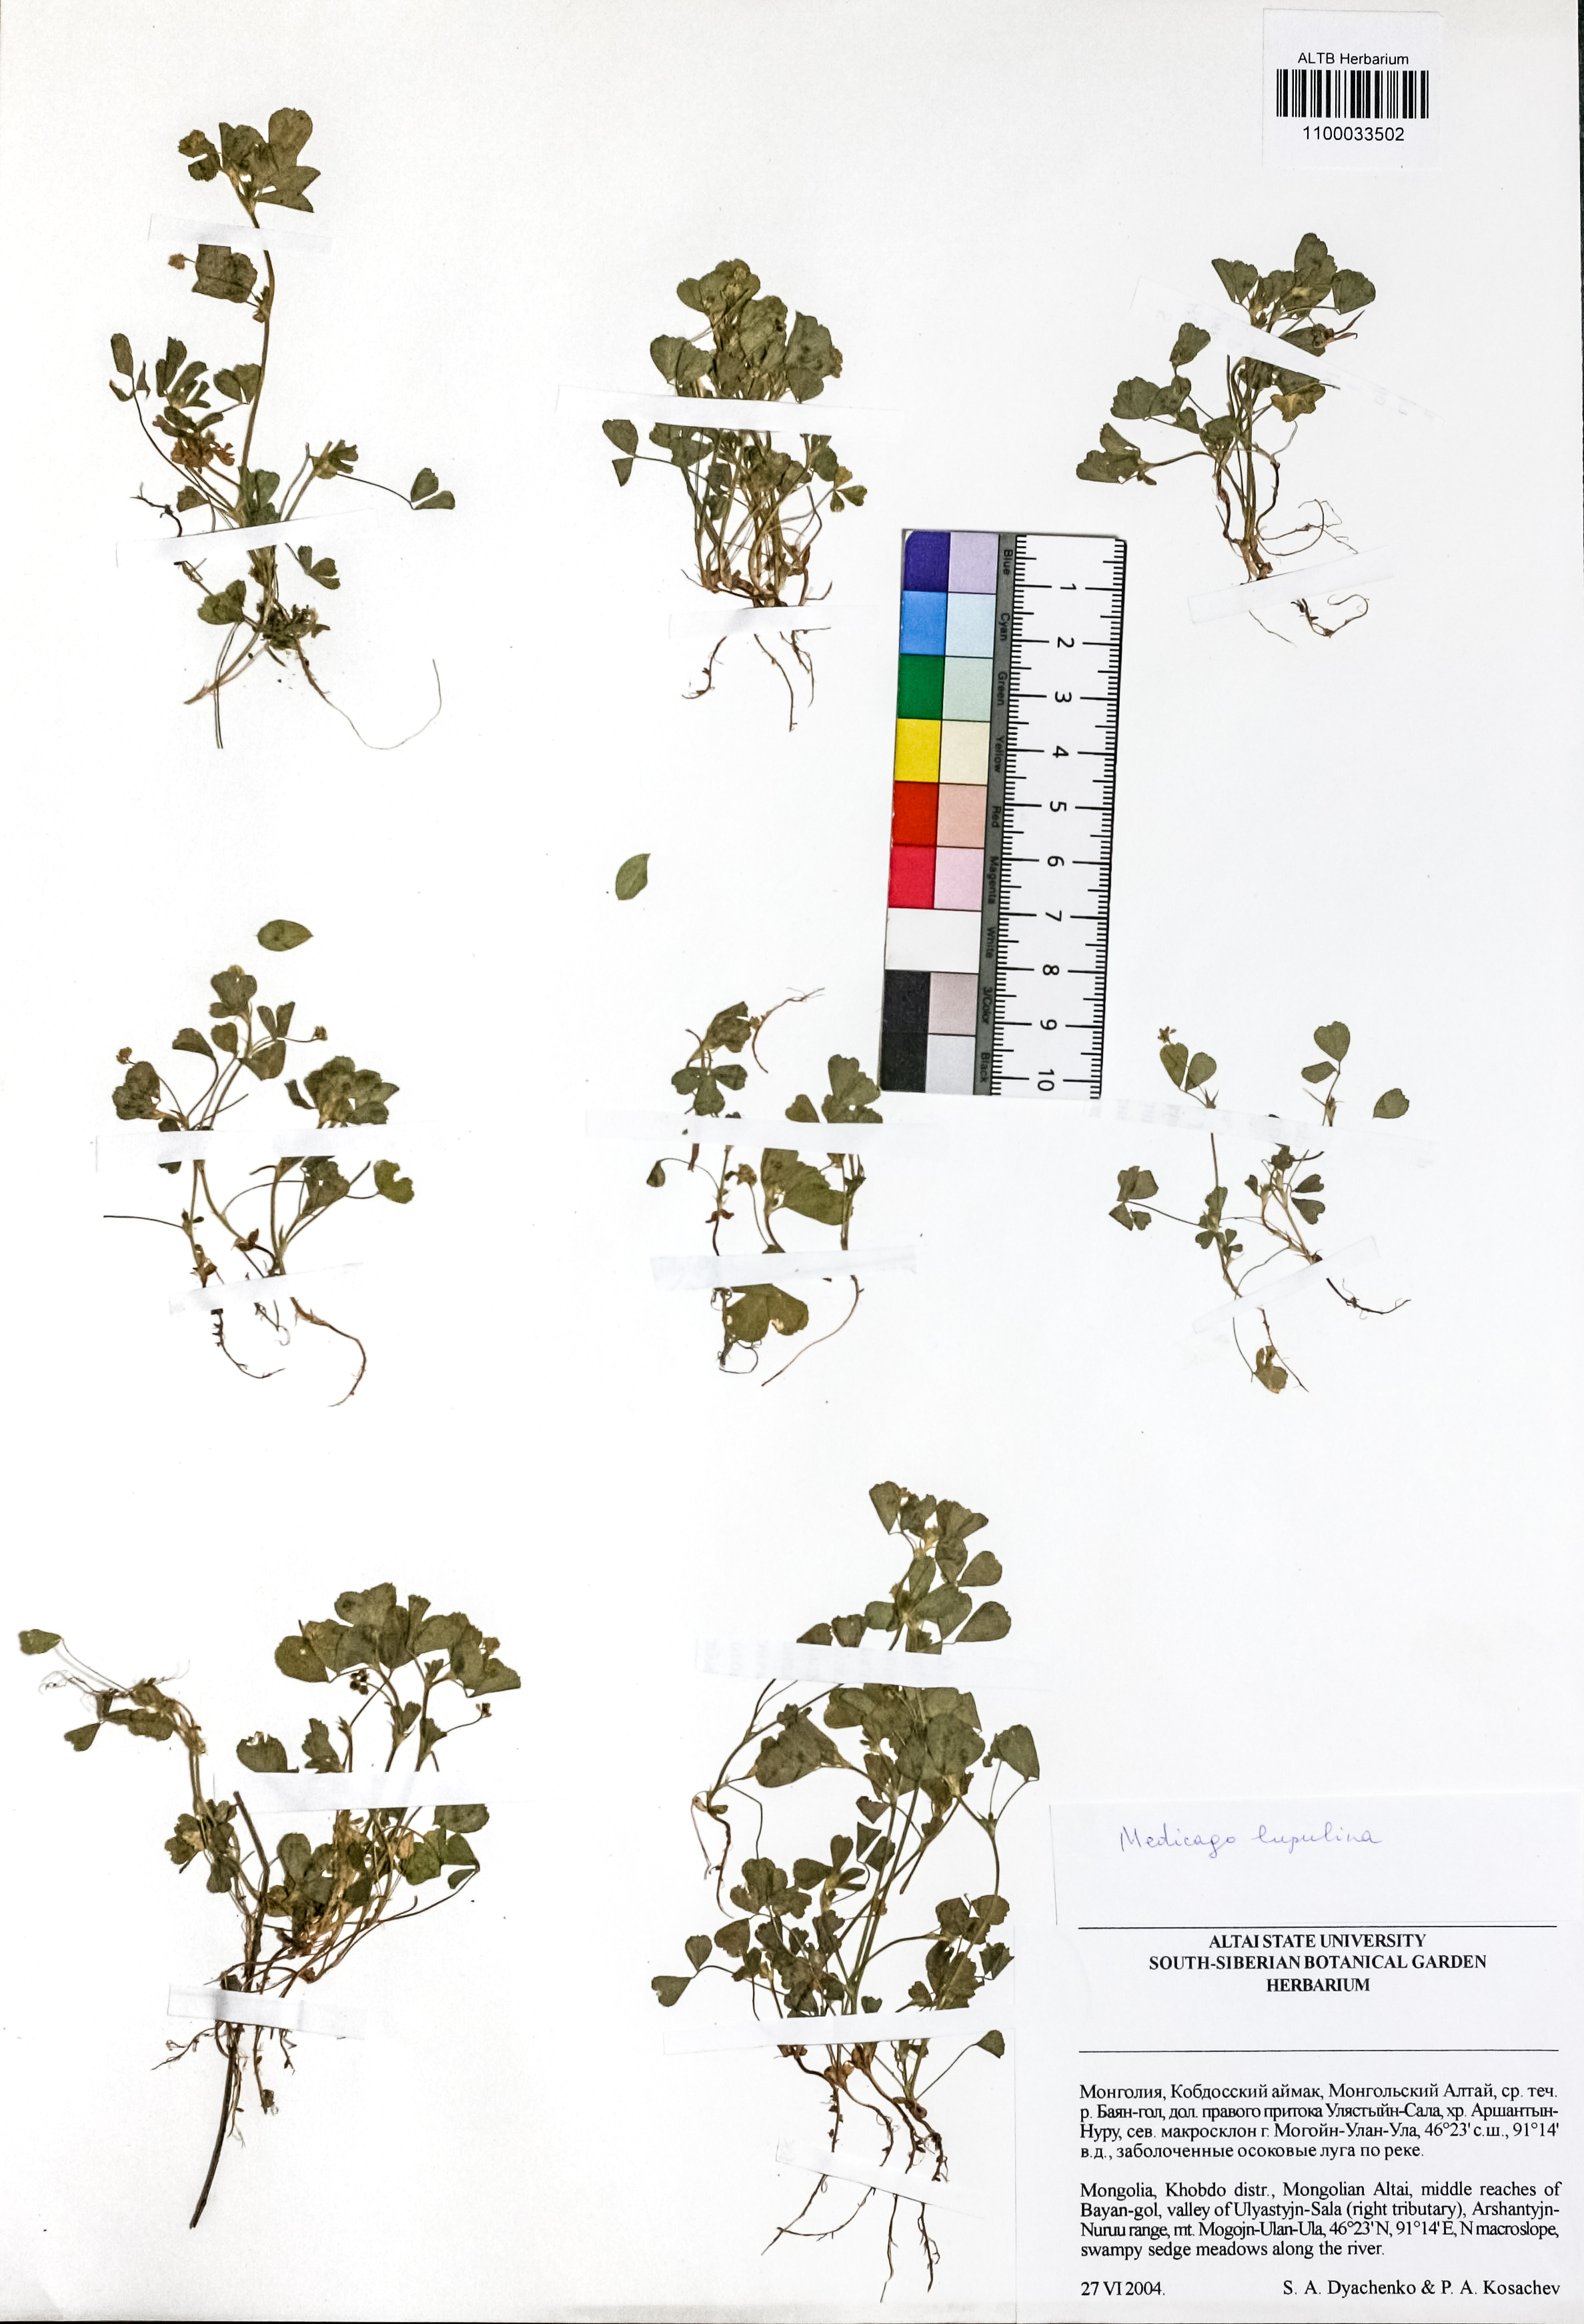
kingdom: Plantae
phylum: Tracheophyta
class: Magnoliopsida
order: Fabales
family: Fabaceae
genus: Medicago
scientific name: Medicago lupulina
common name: Black medick
